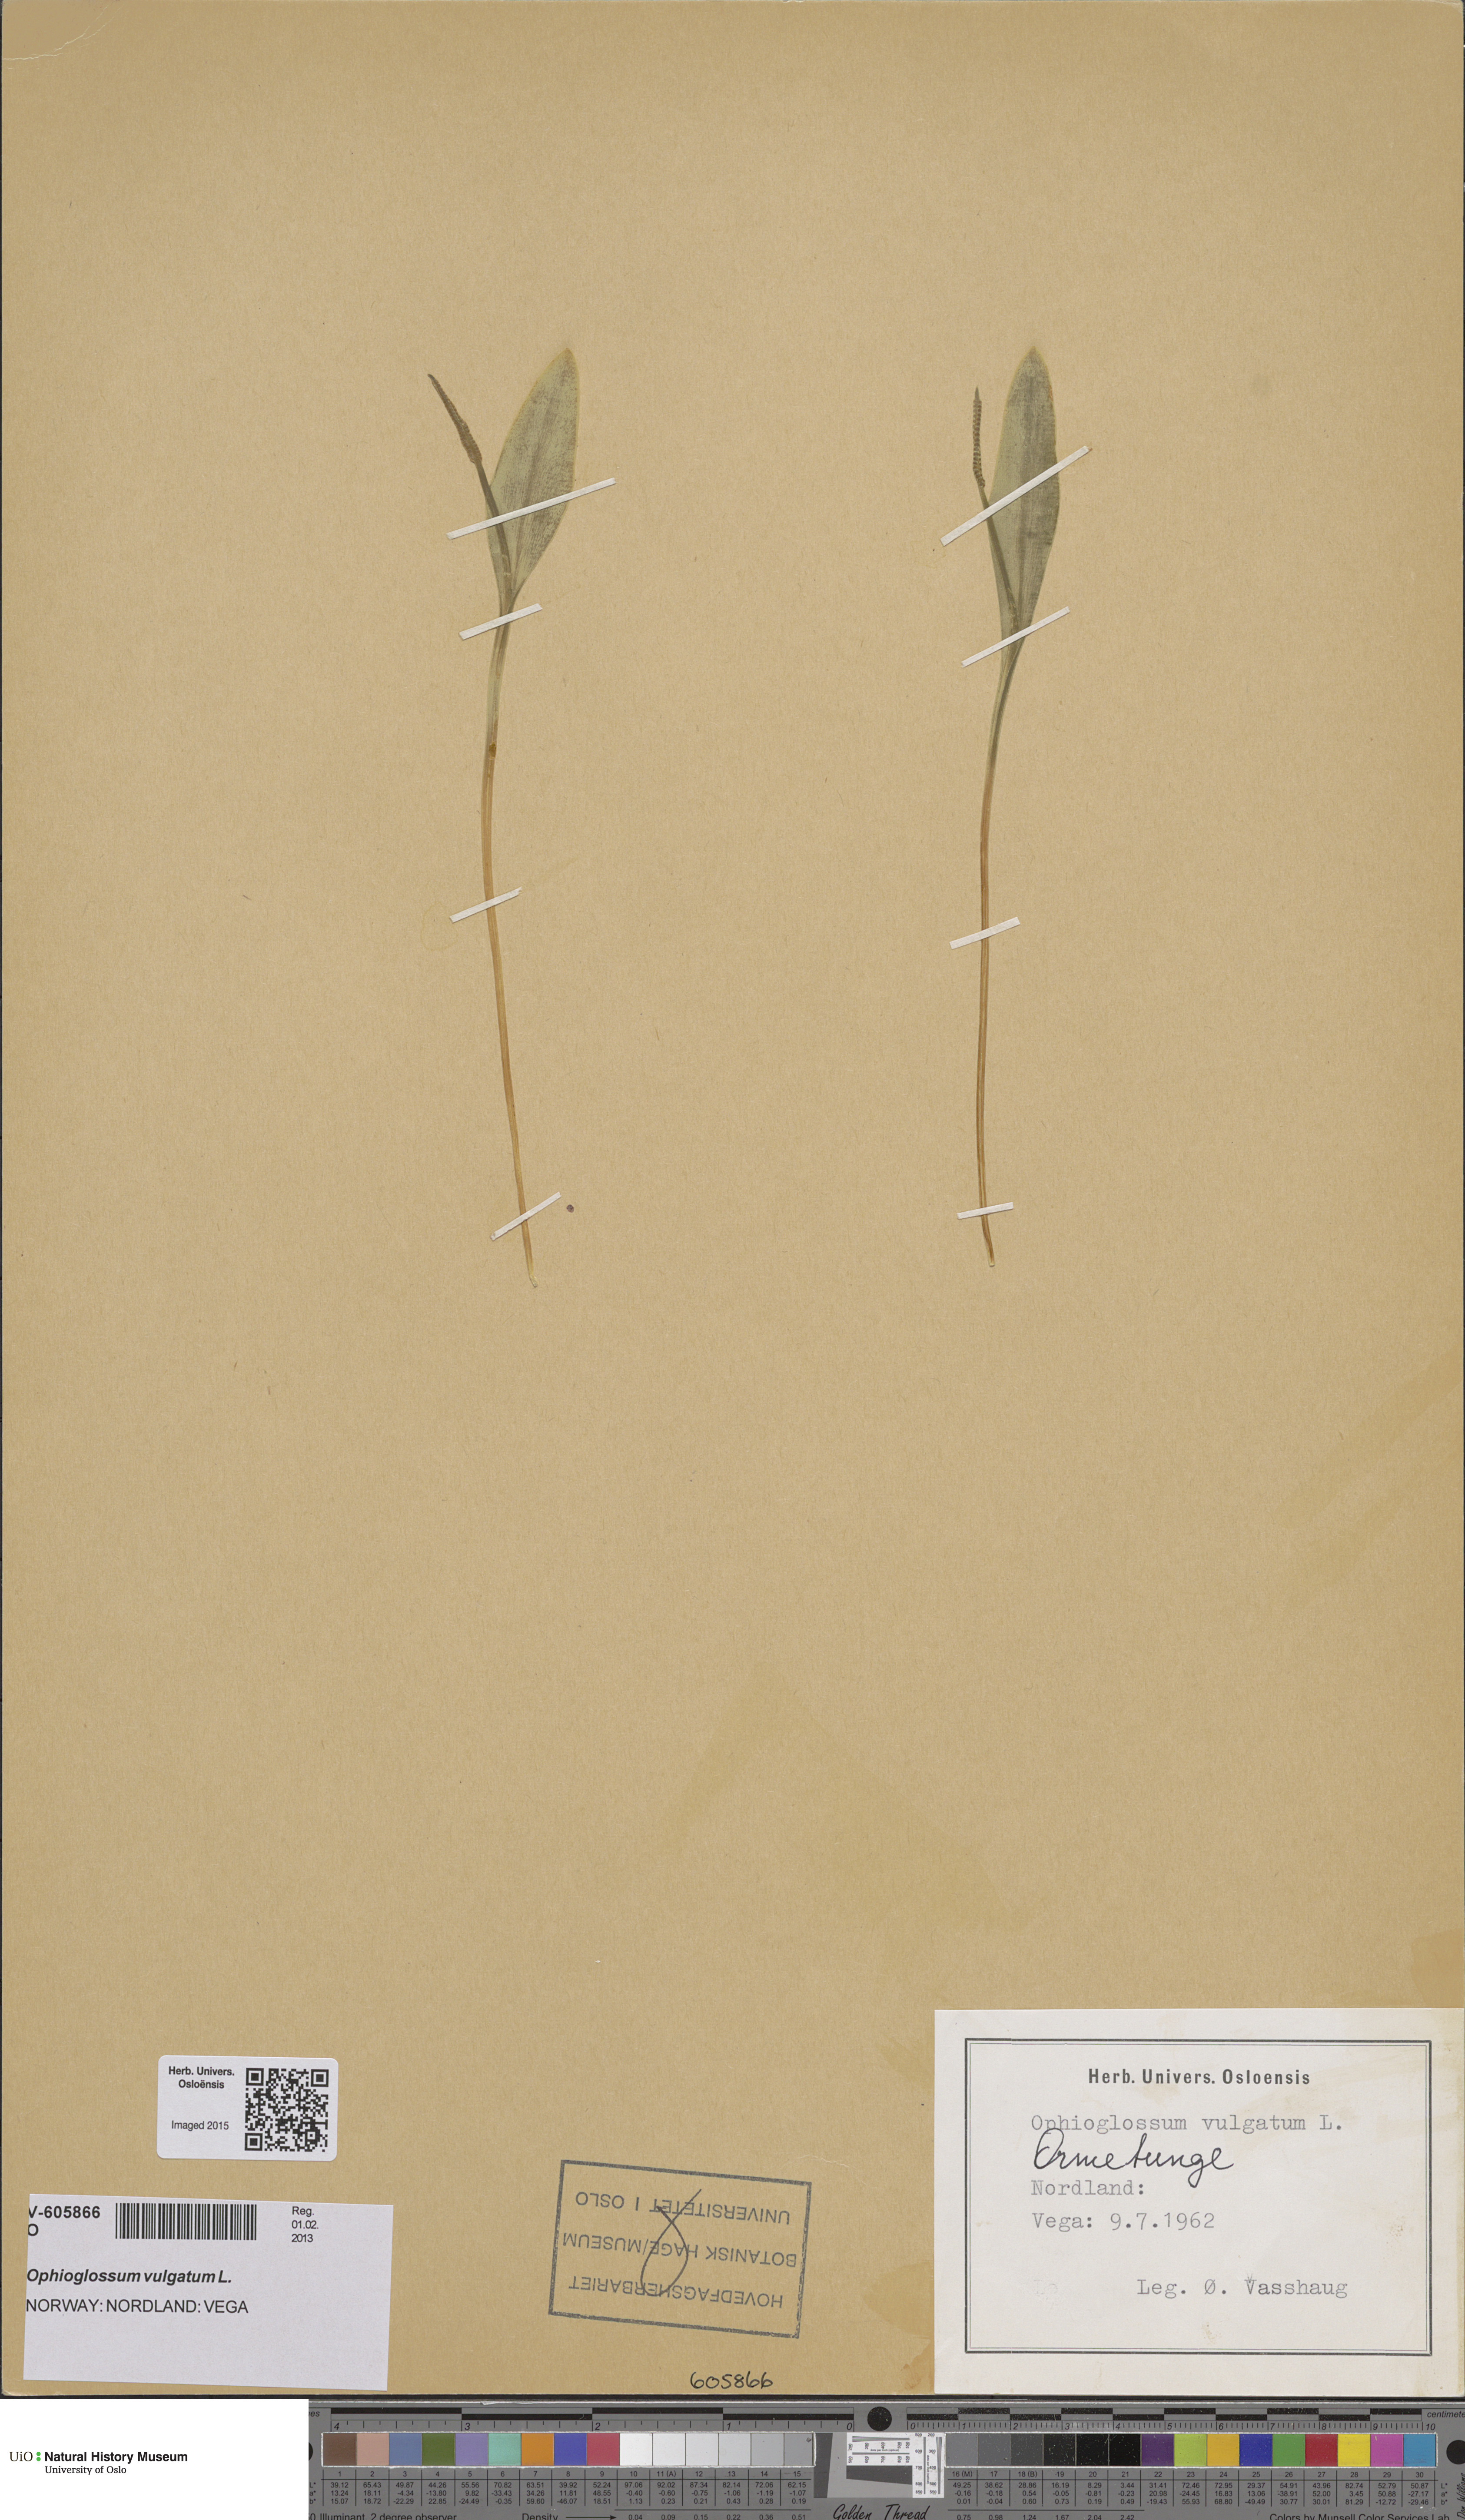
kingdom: Plantae
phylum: Tracheophyta
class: Polypodiopsida
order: Ophioglossales
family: Ophioglossaceae
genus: Ophioglossum
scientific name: Ophioglossum vulgatum
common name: Adder's-tongue
